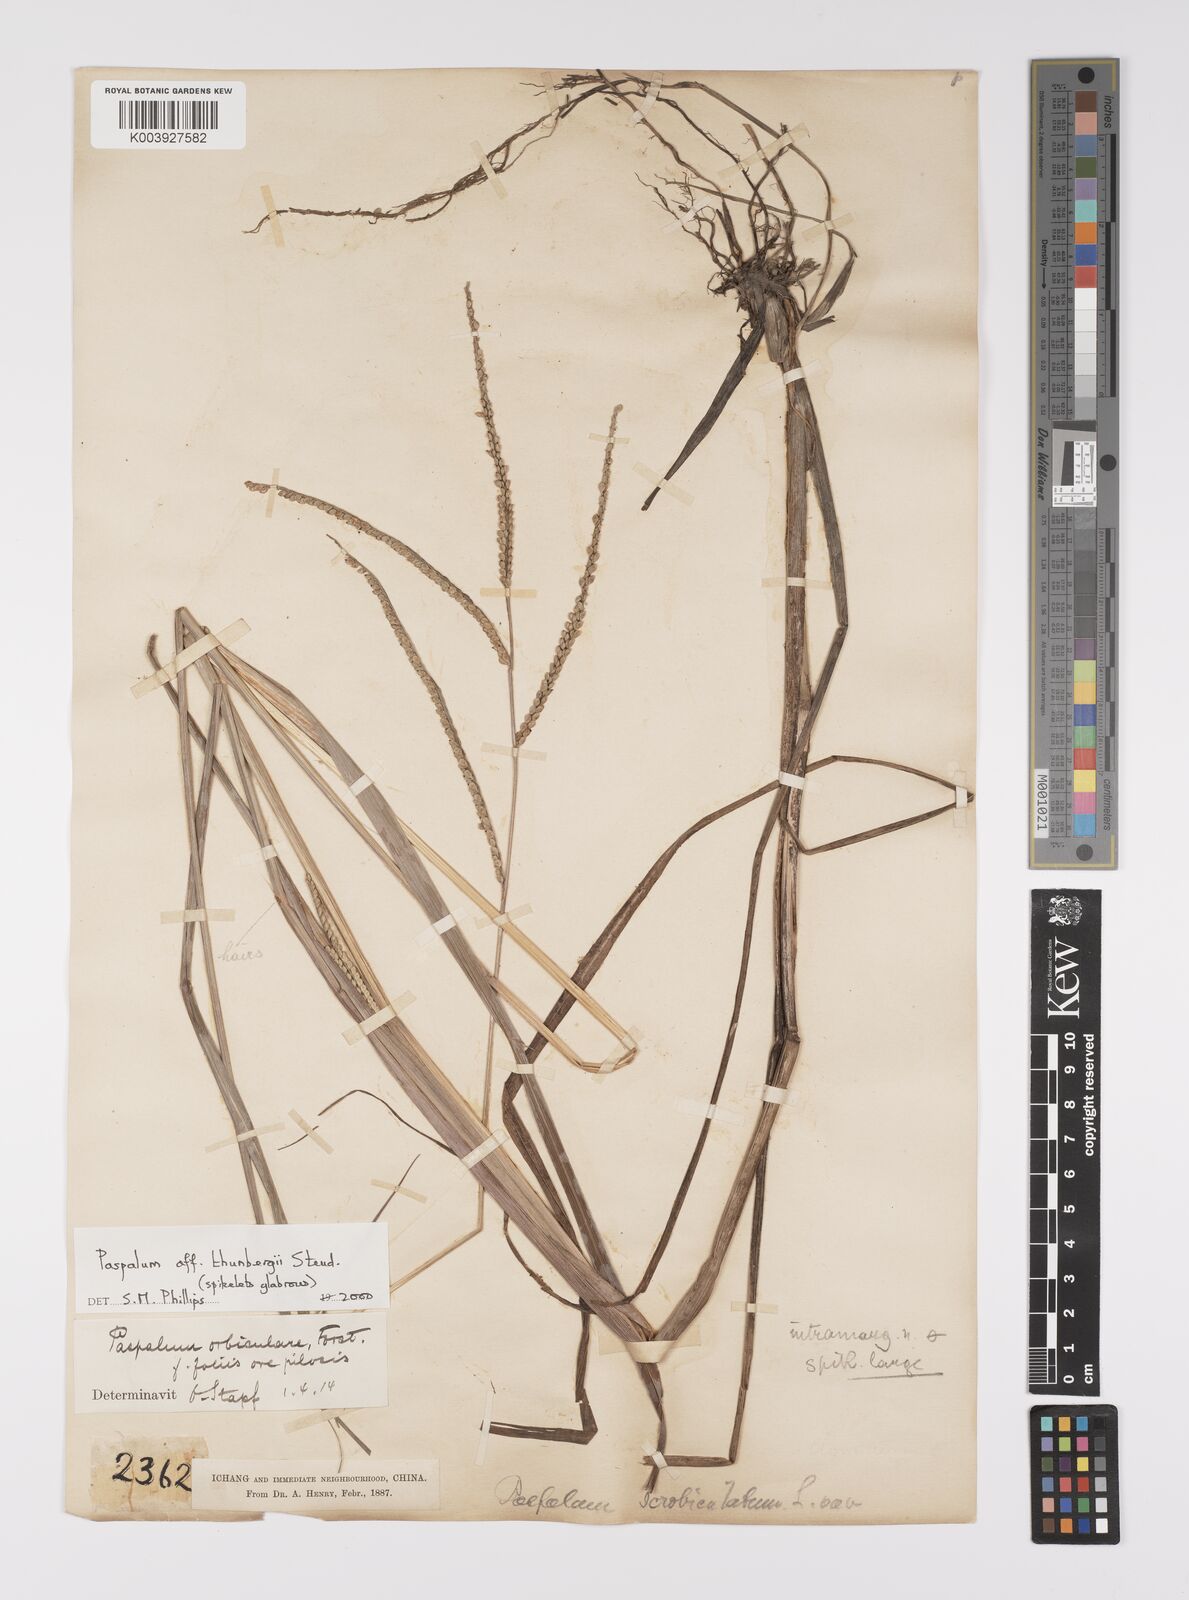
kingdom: Plantae
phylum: Tracheophyta
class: Liliopsida
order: Poales
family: Poaceae
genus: Paspalum
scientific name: Paspalum thunbergii
